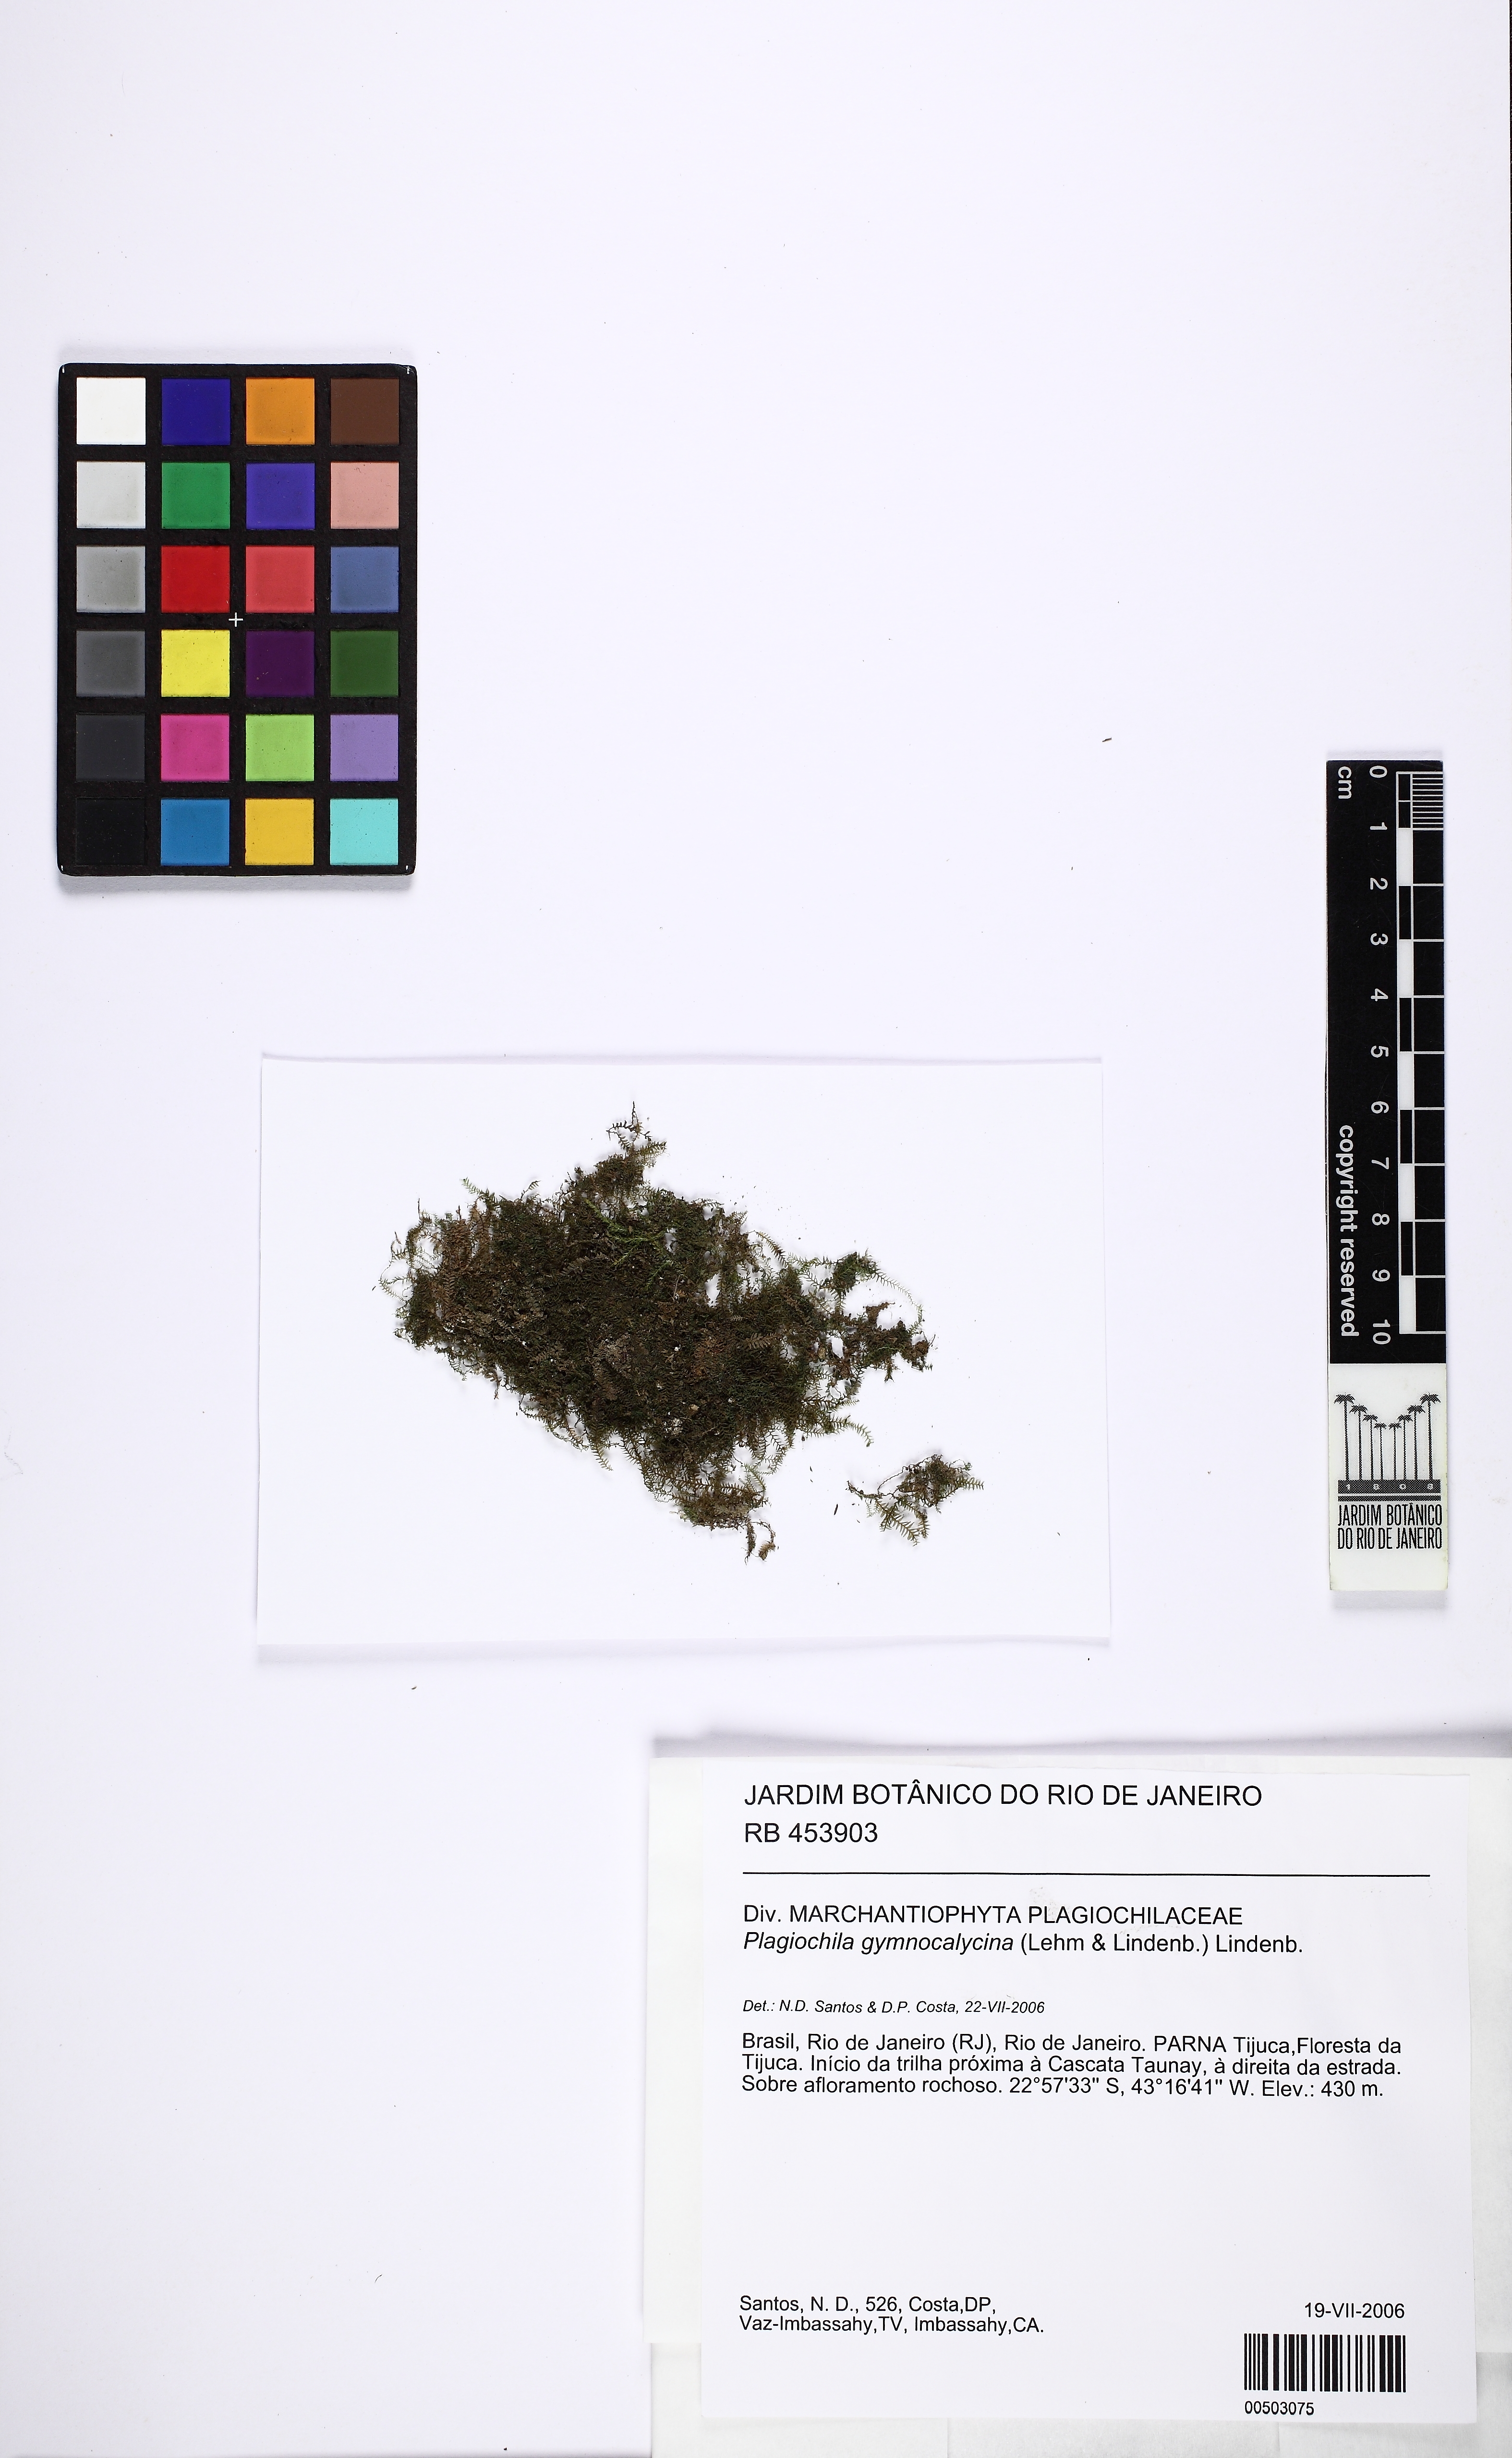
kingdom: Plantae
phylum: Marchantiophyta
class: Jungermanniopsida
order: Jungermanniales
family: Plagiochilaceae
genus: Plagiochila
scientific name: Plagiochila gymnocalycina
